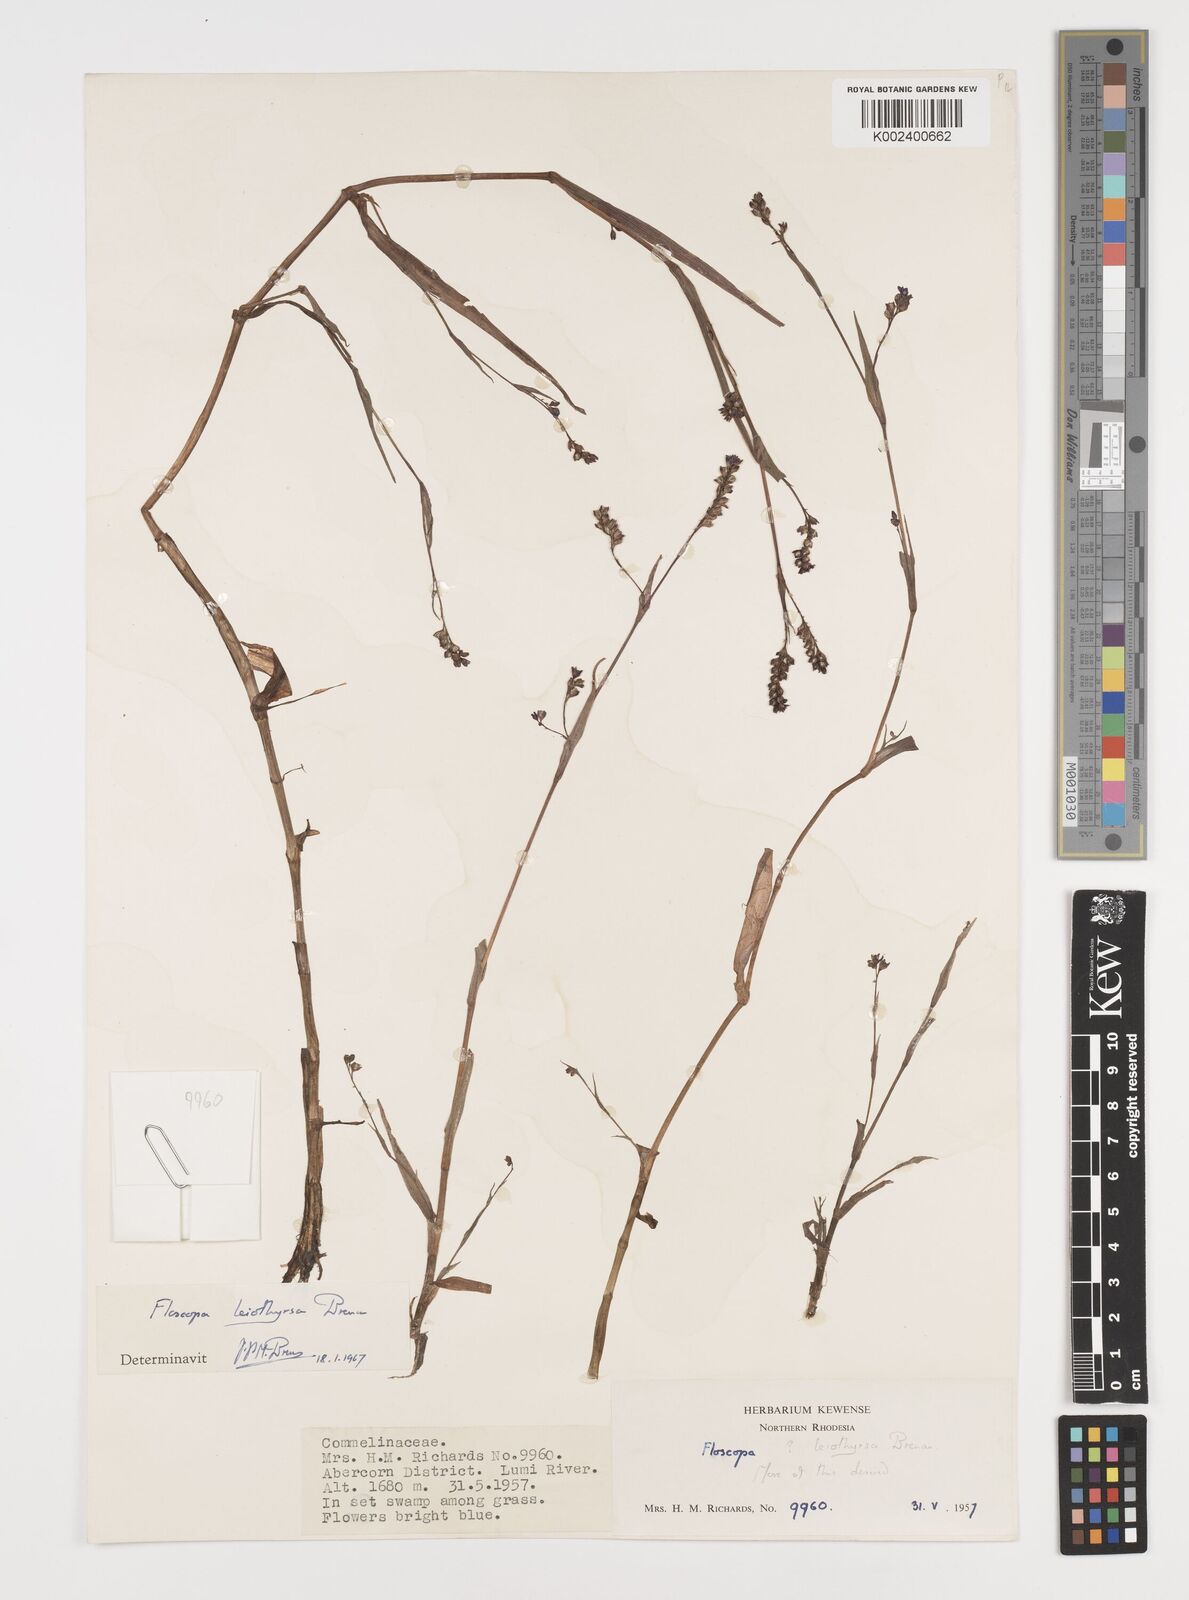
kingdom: Plantae
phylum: Tracheophyta
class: Liliopsida
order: Commelinales
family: Commelinaceae
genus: Floscopa
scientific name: Floscopa leiothyrsa
